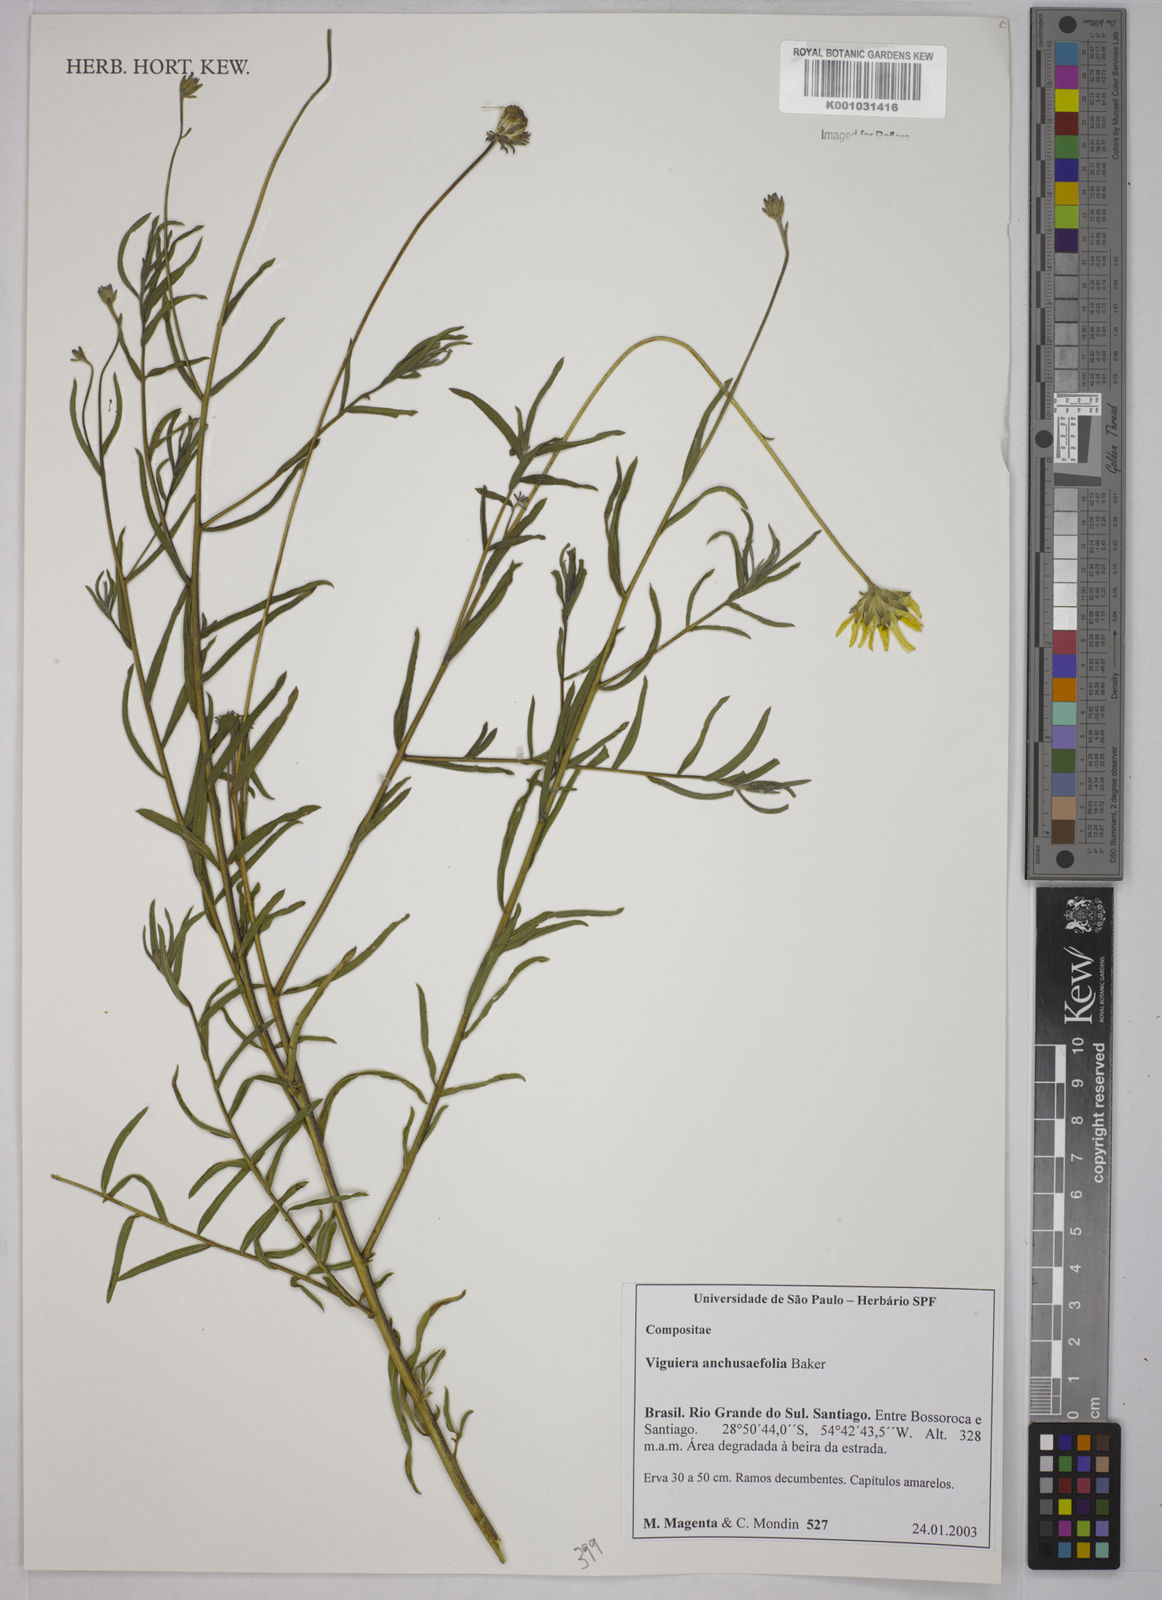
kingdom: Plantae
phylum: Tracheophyta
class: Magnoliopsida
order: Asterales
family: Asteraceae
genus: Viguiera
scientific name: Viguiera
